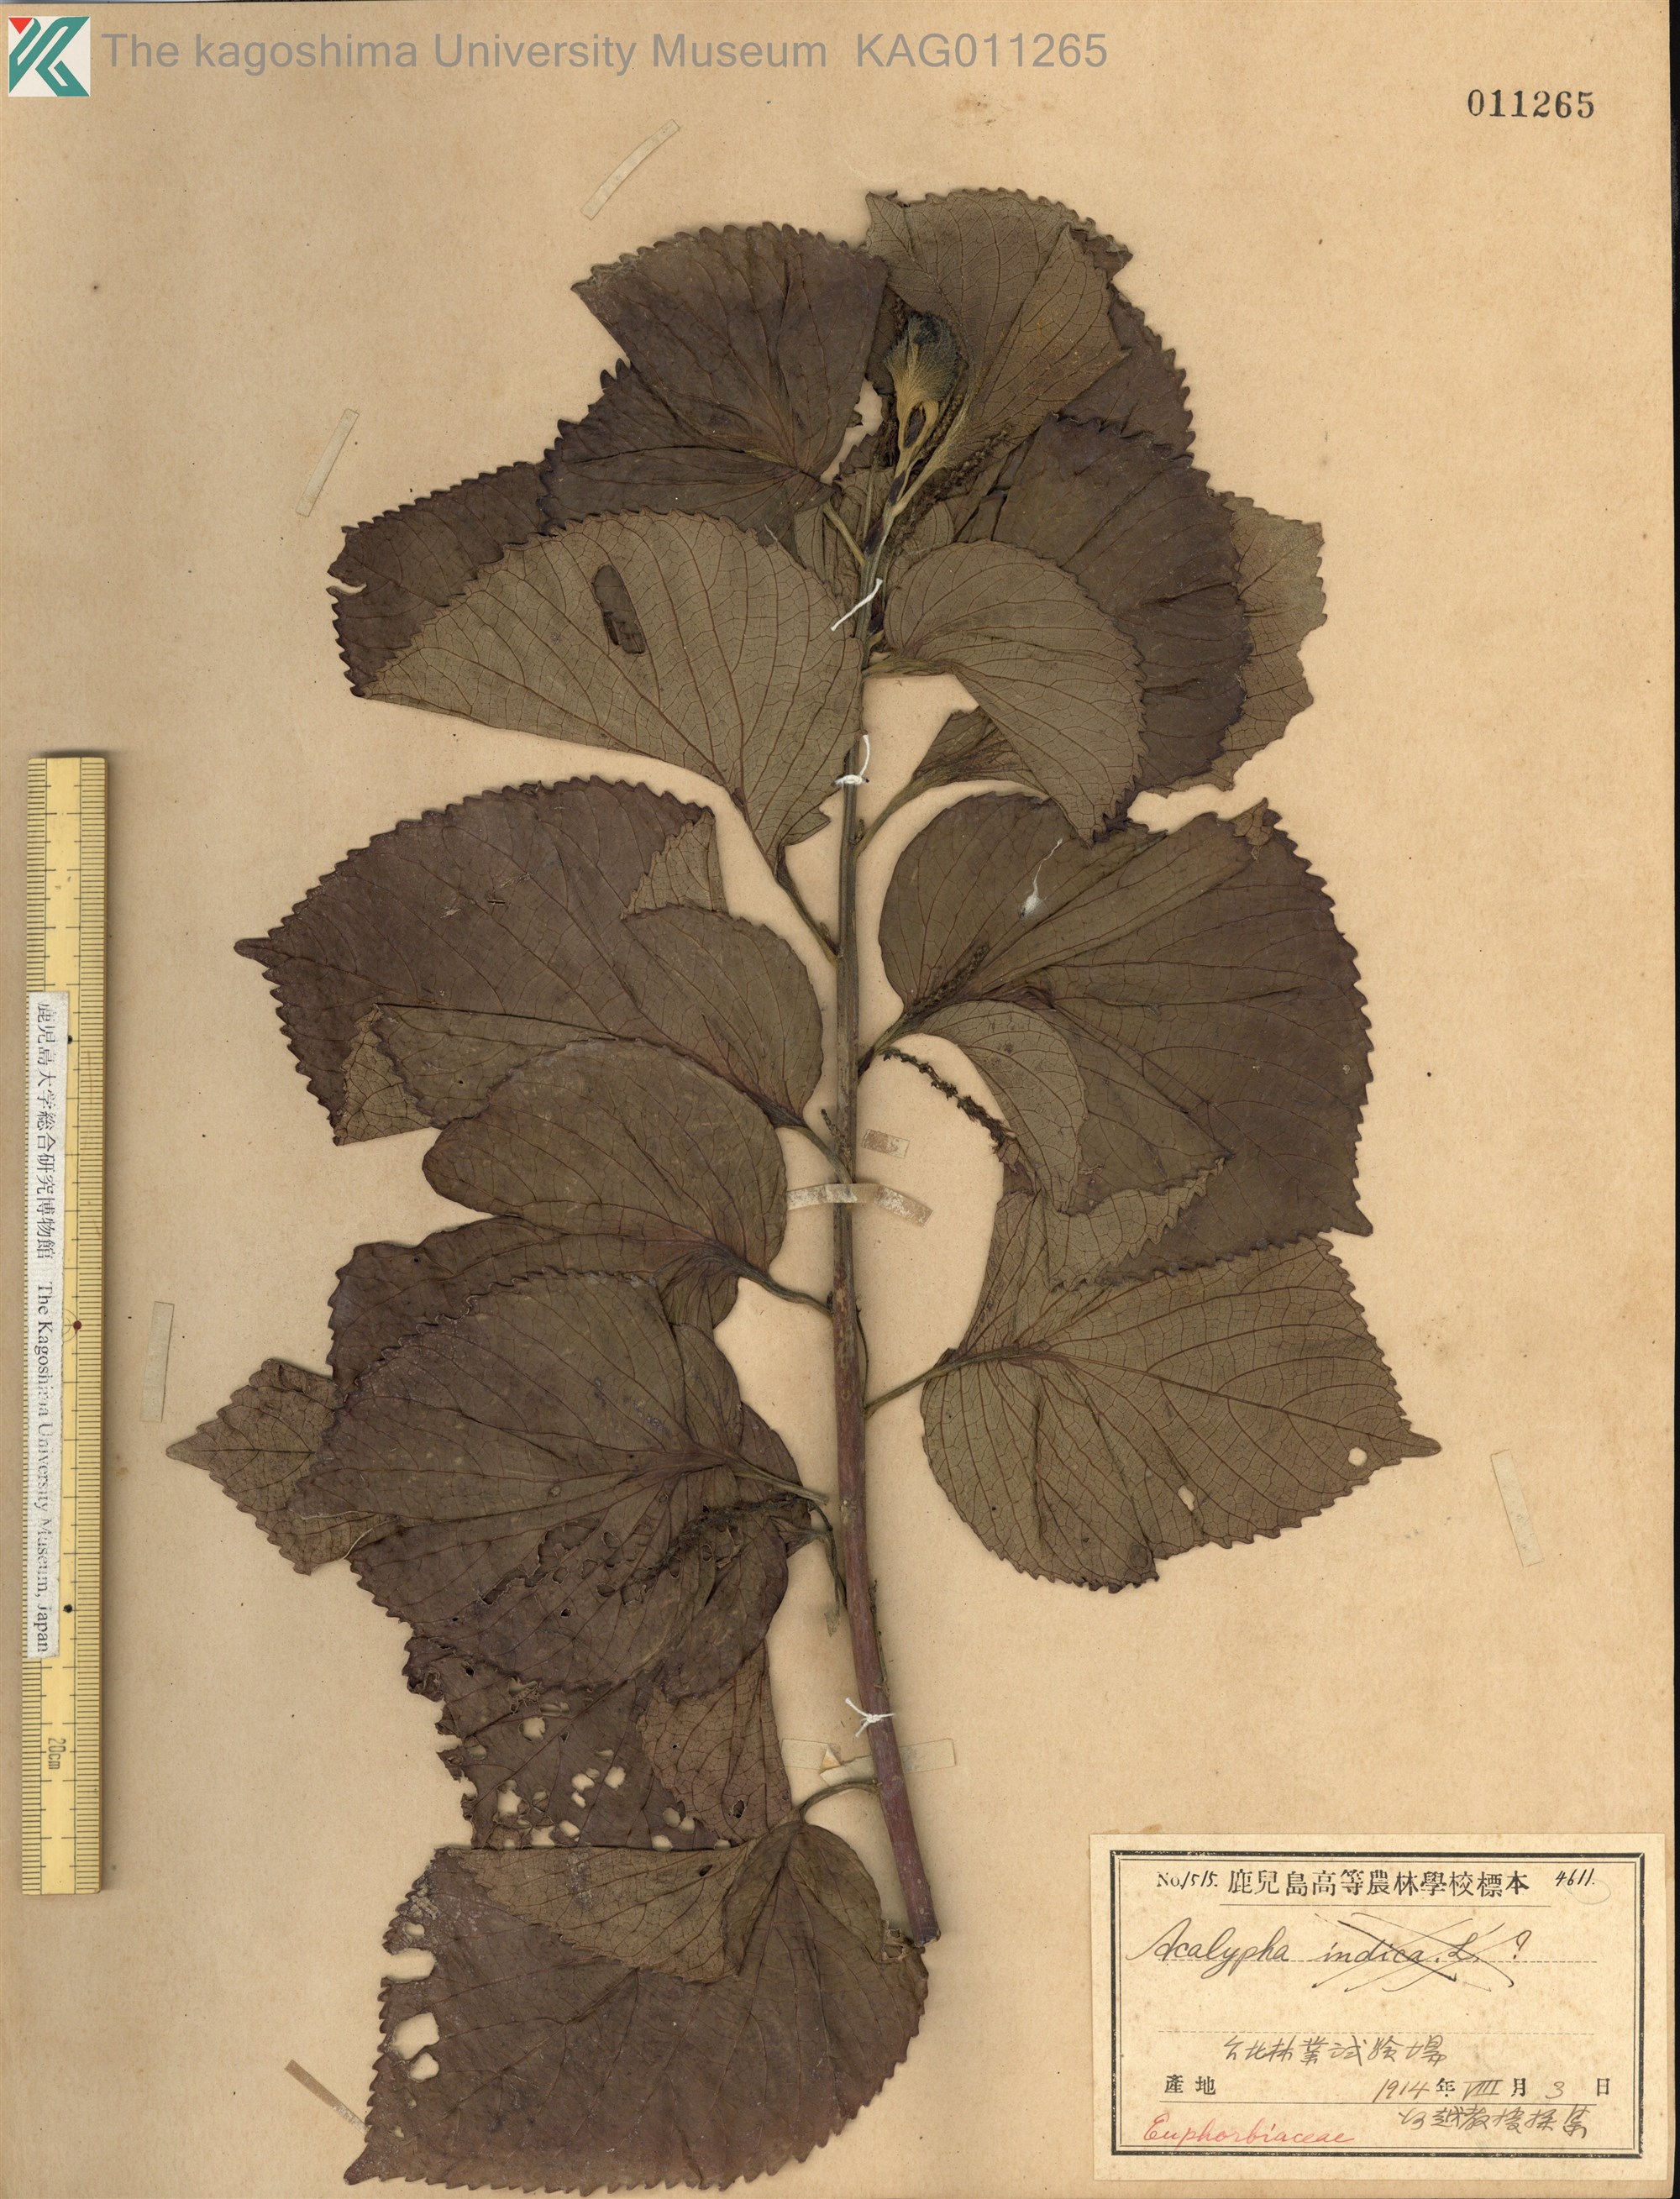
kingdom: Plantae
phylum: Tracheophyta
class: Magnoliopsida
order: Malpighiales
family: Euphorbiaceae
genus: Acalypha
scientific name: Acalypha wilkesiana
